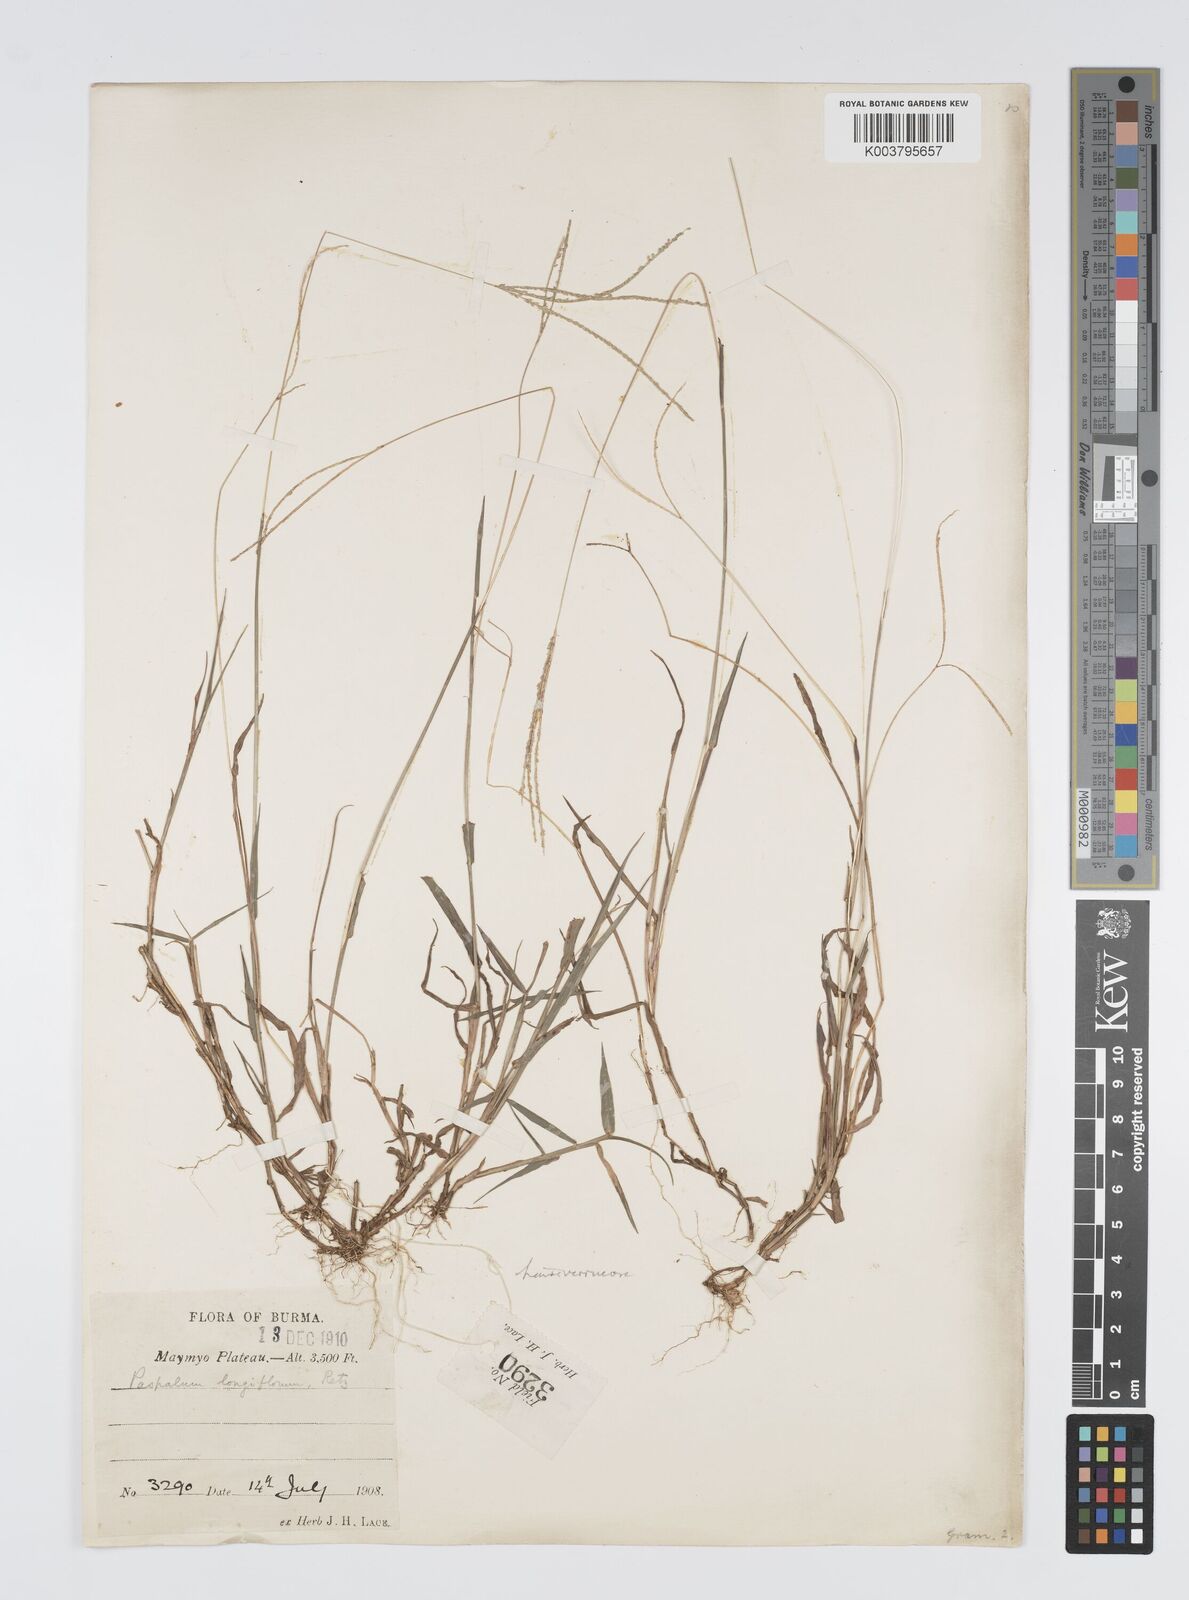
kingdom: Plantae
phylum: Tracheophyta
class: Liliopsida
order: Poales
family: Poaceae
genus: Digitaria
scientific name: Digitaria longiflora
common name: Wire crabgrass
